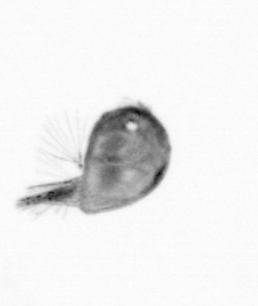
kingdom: Animalia
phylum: Arthropoda
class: Maxillopoda
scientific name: Maxillopoda
